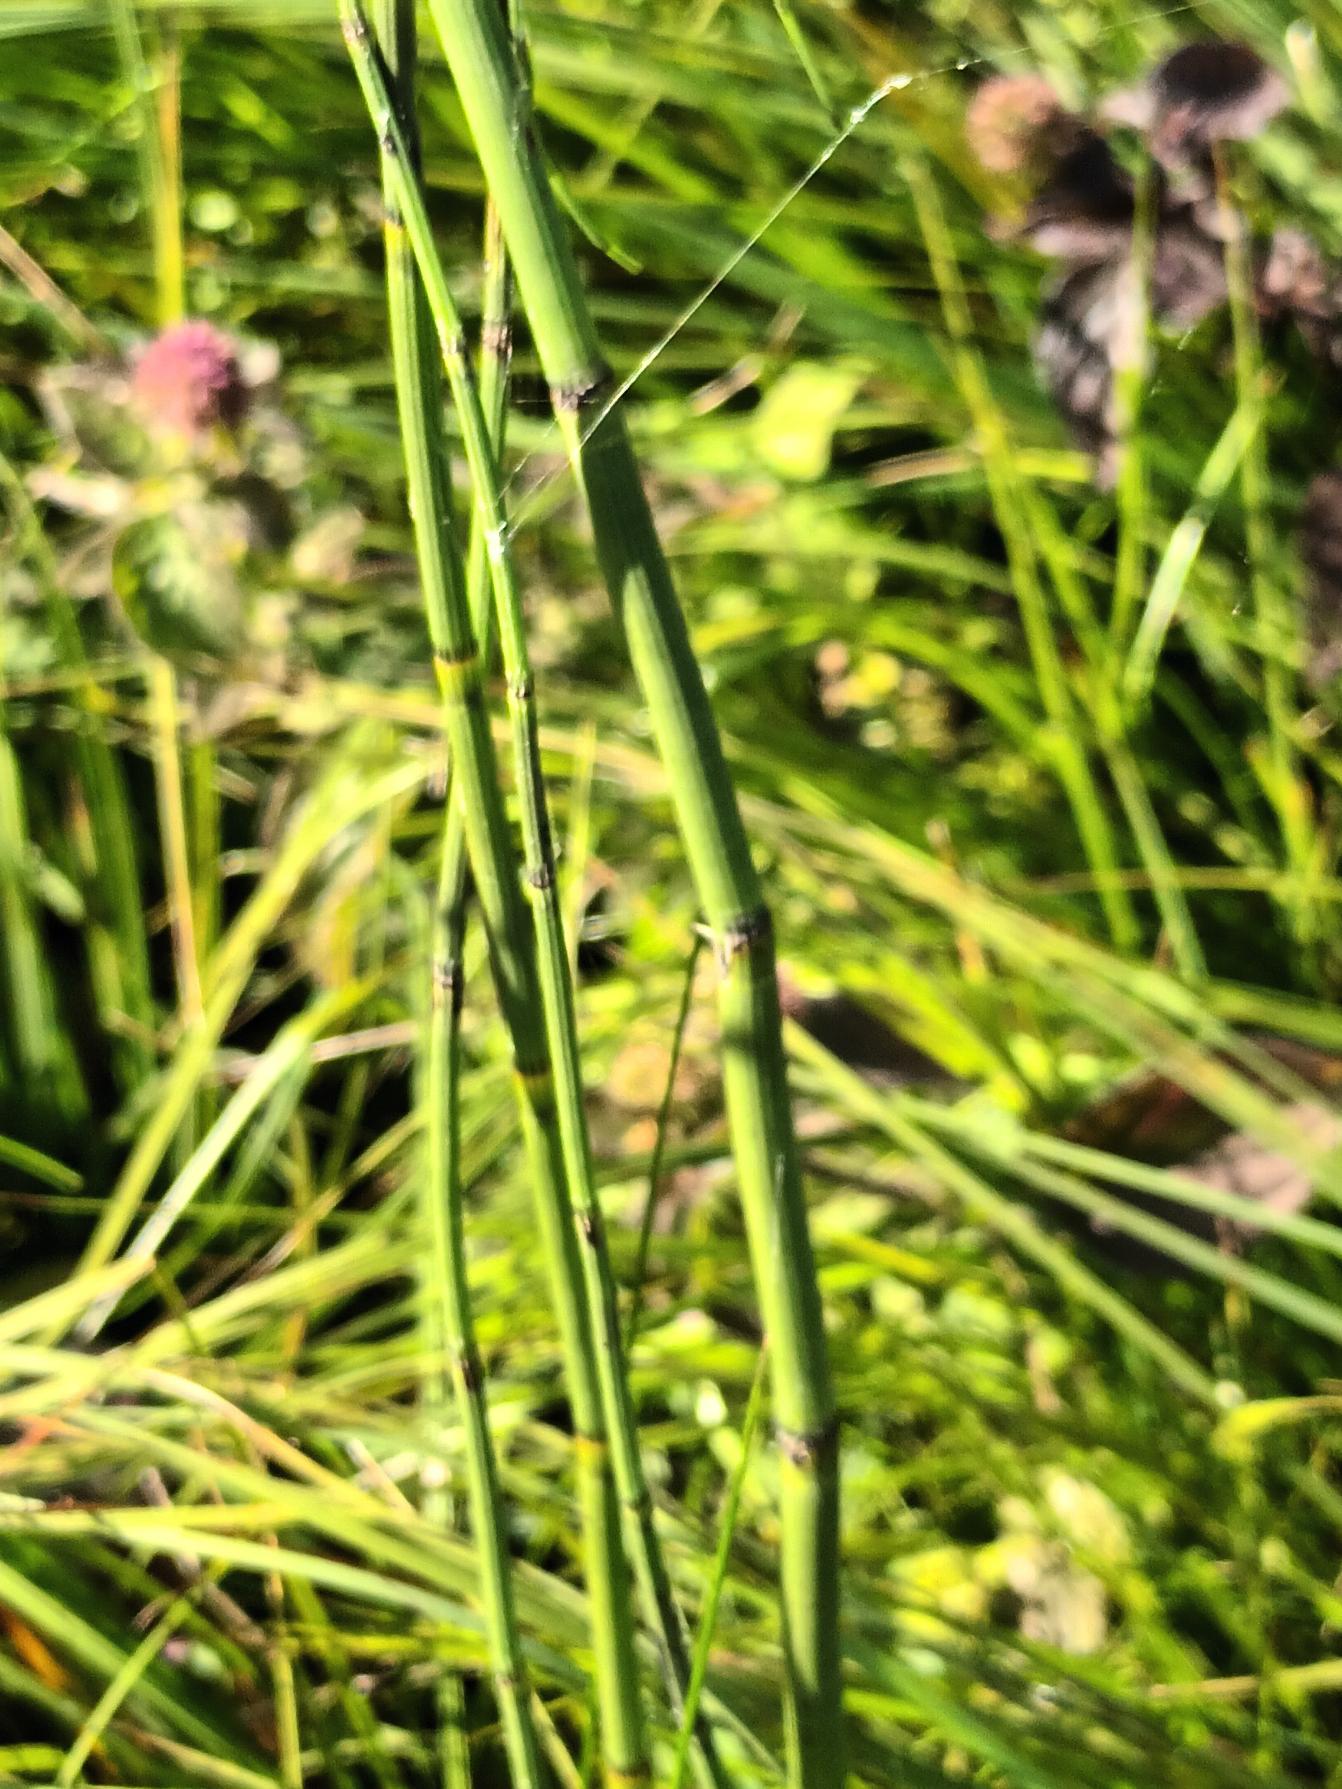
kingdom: Plantae
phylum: Tracheophyta
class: Polypodiopsida
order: Equisetales
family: Equisetaceae
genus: Equisetum
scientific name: Equisetum fluviatile
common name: Dynd-padderok
